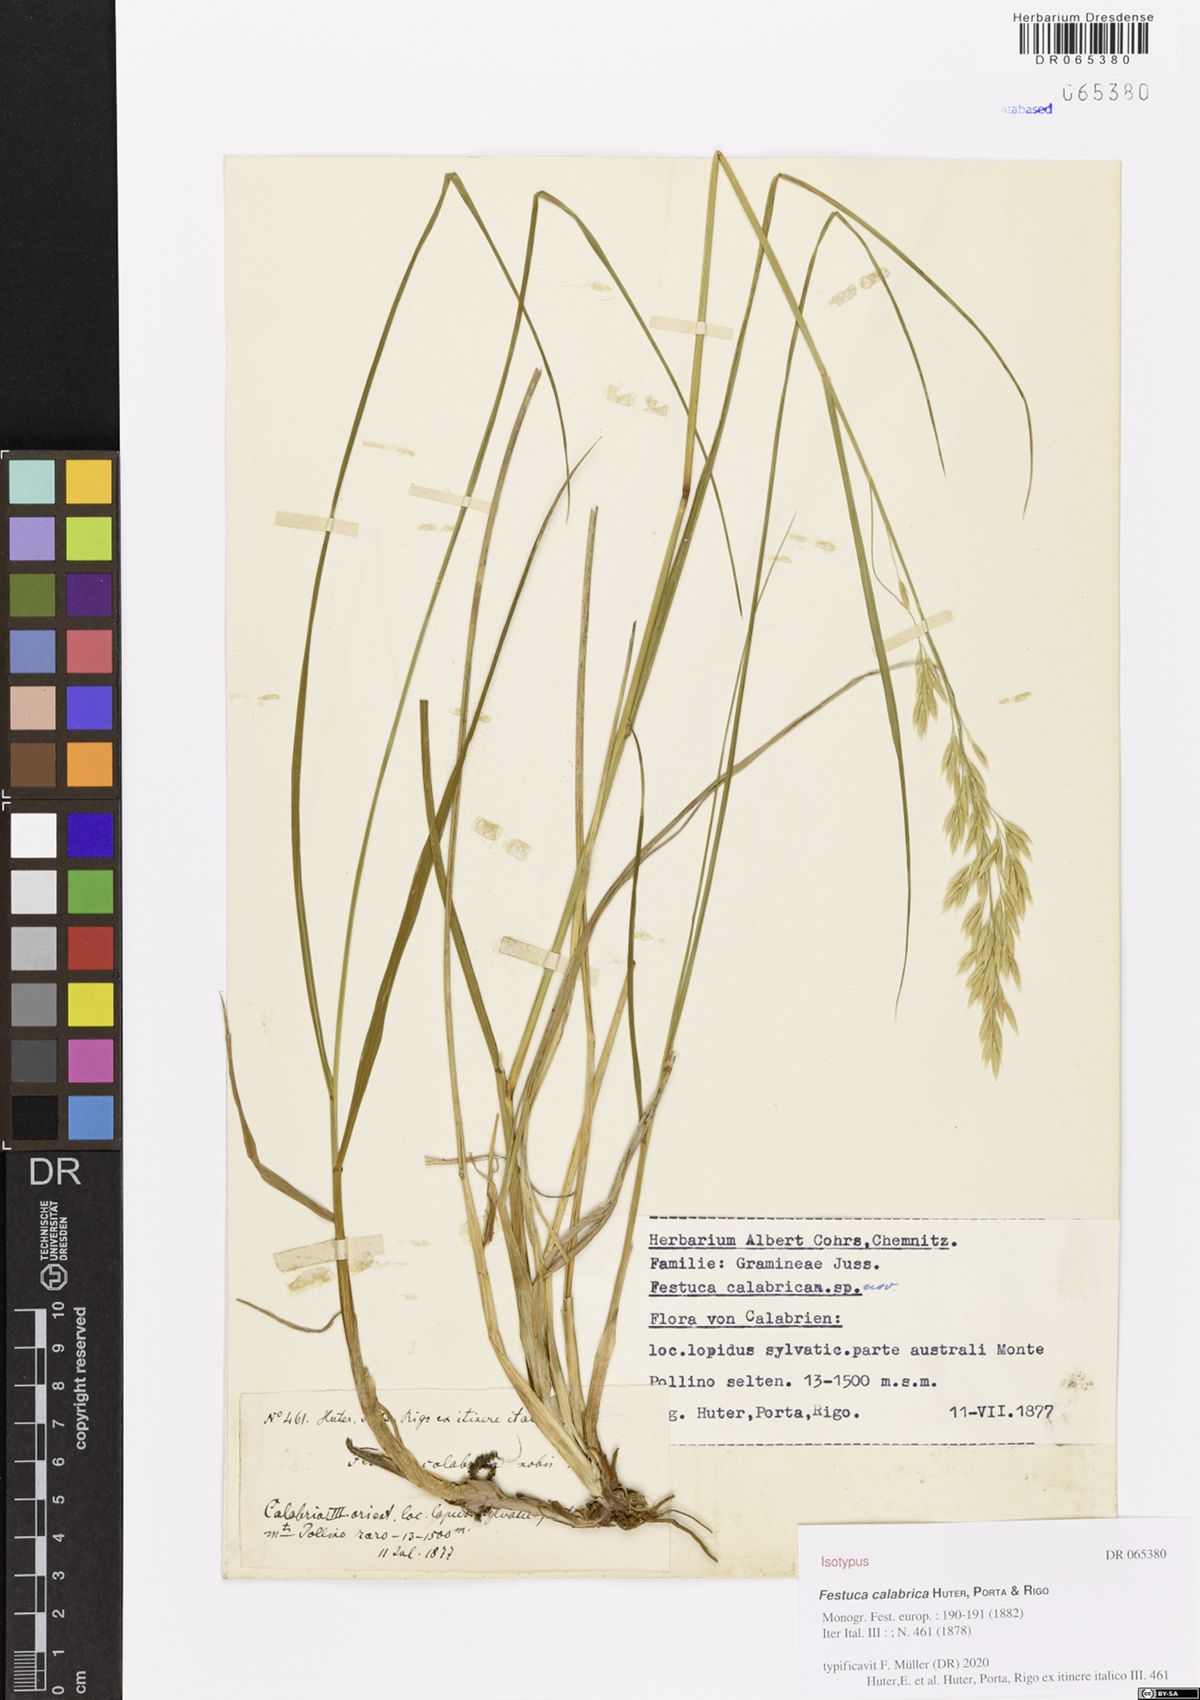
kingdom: Plantae
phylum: Tracheophyta
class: Liliopsida
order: Poales
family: Poaceae
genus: Festuca
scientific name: Festuca calabrica
